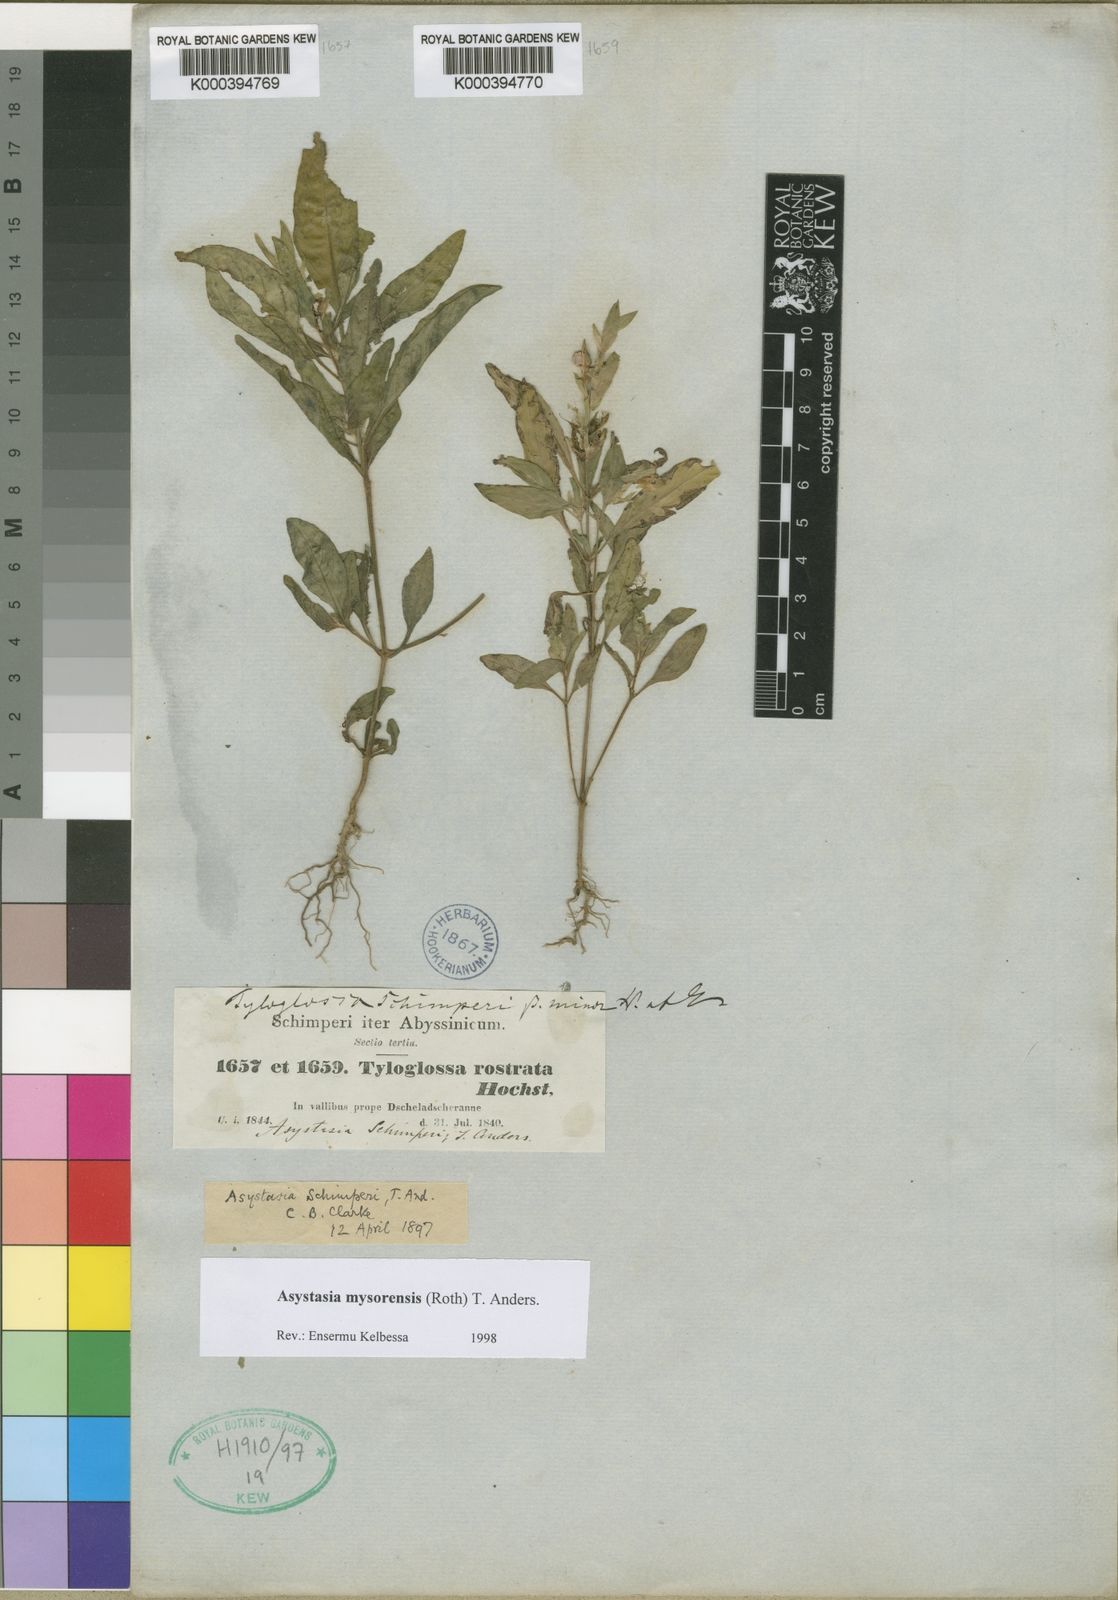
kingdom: Plantae
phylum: Tracheophyta
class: Magnoliopsida
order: Lamiales
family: Acanthaceae
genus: Asystasia
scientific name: Asystasia mysorensis
